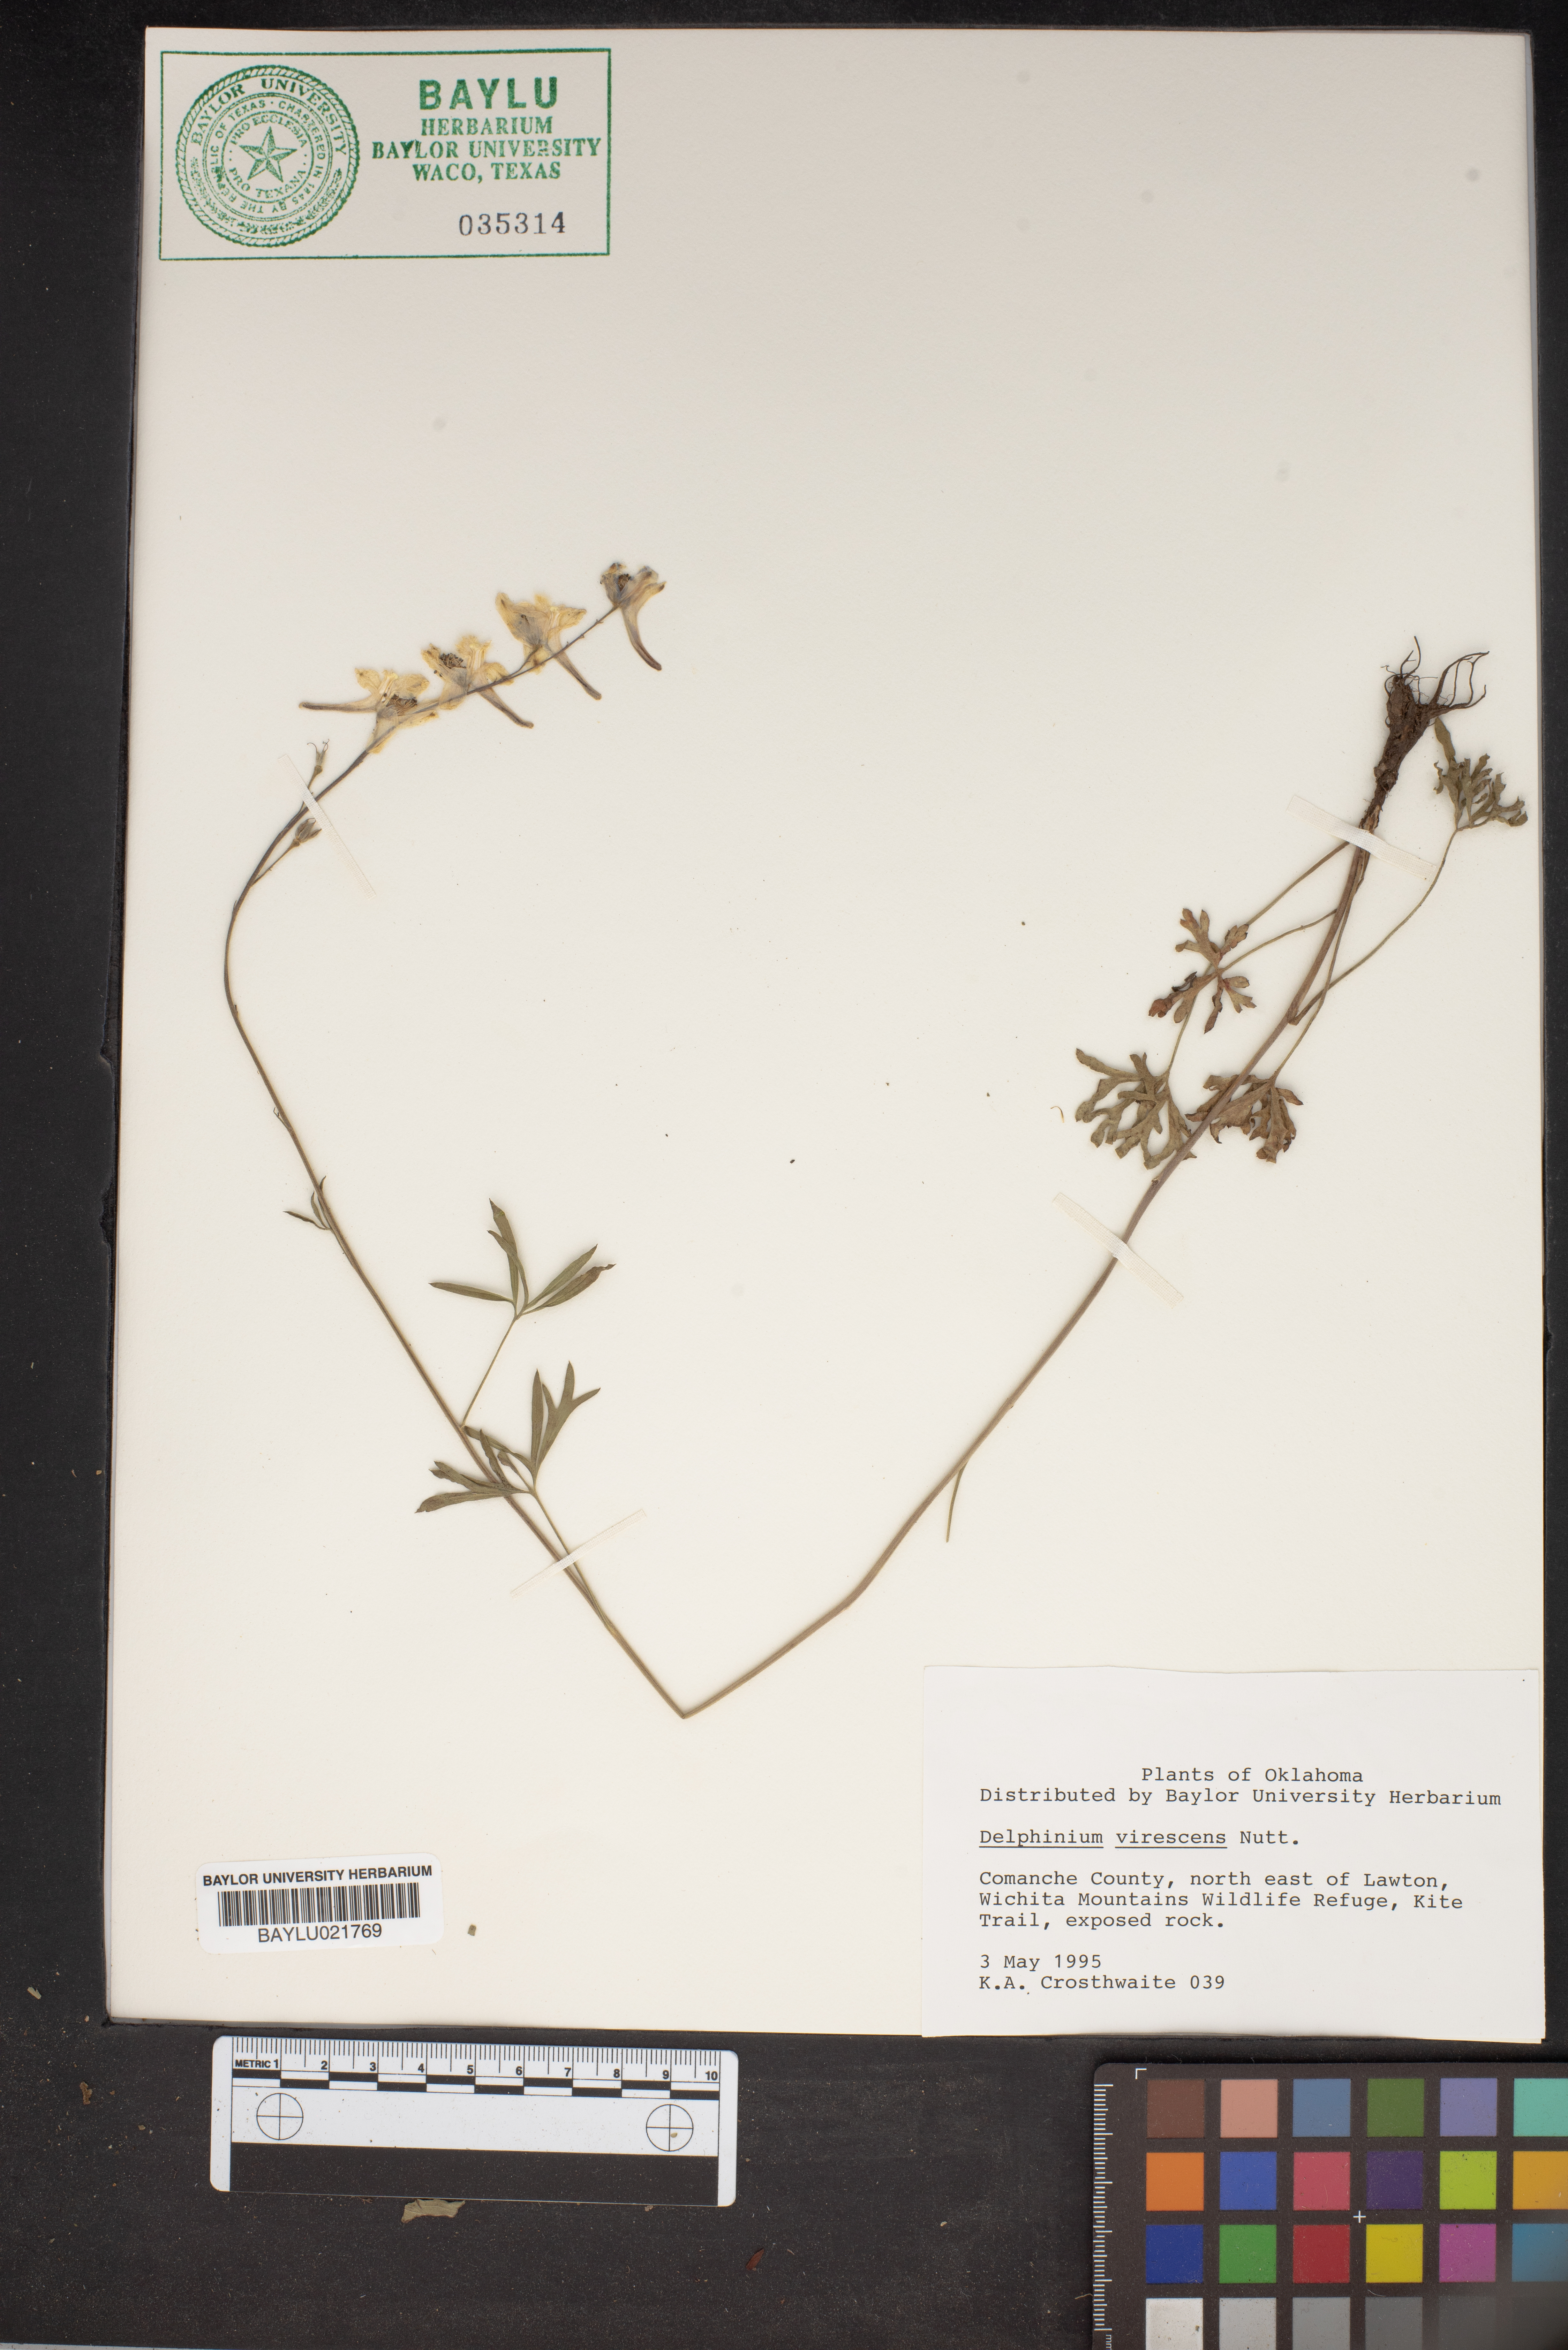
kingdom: Plantae
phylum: Tracheophyta
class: Magnoliopsida
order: Ranunculales
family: Ranunculaceae
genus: Delphinium
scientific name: Delphinium carolinianum
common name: Carolina larkspur
